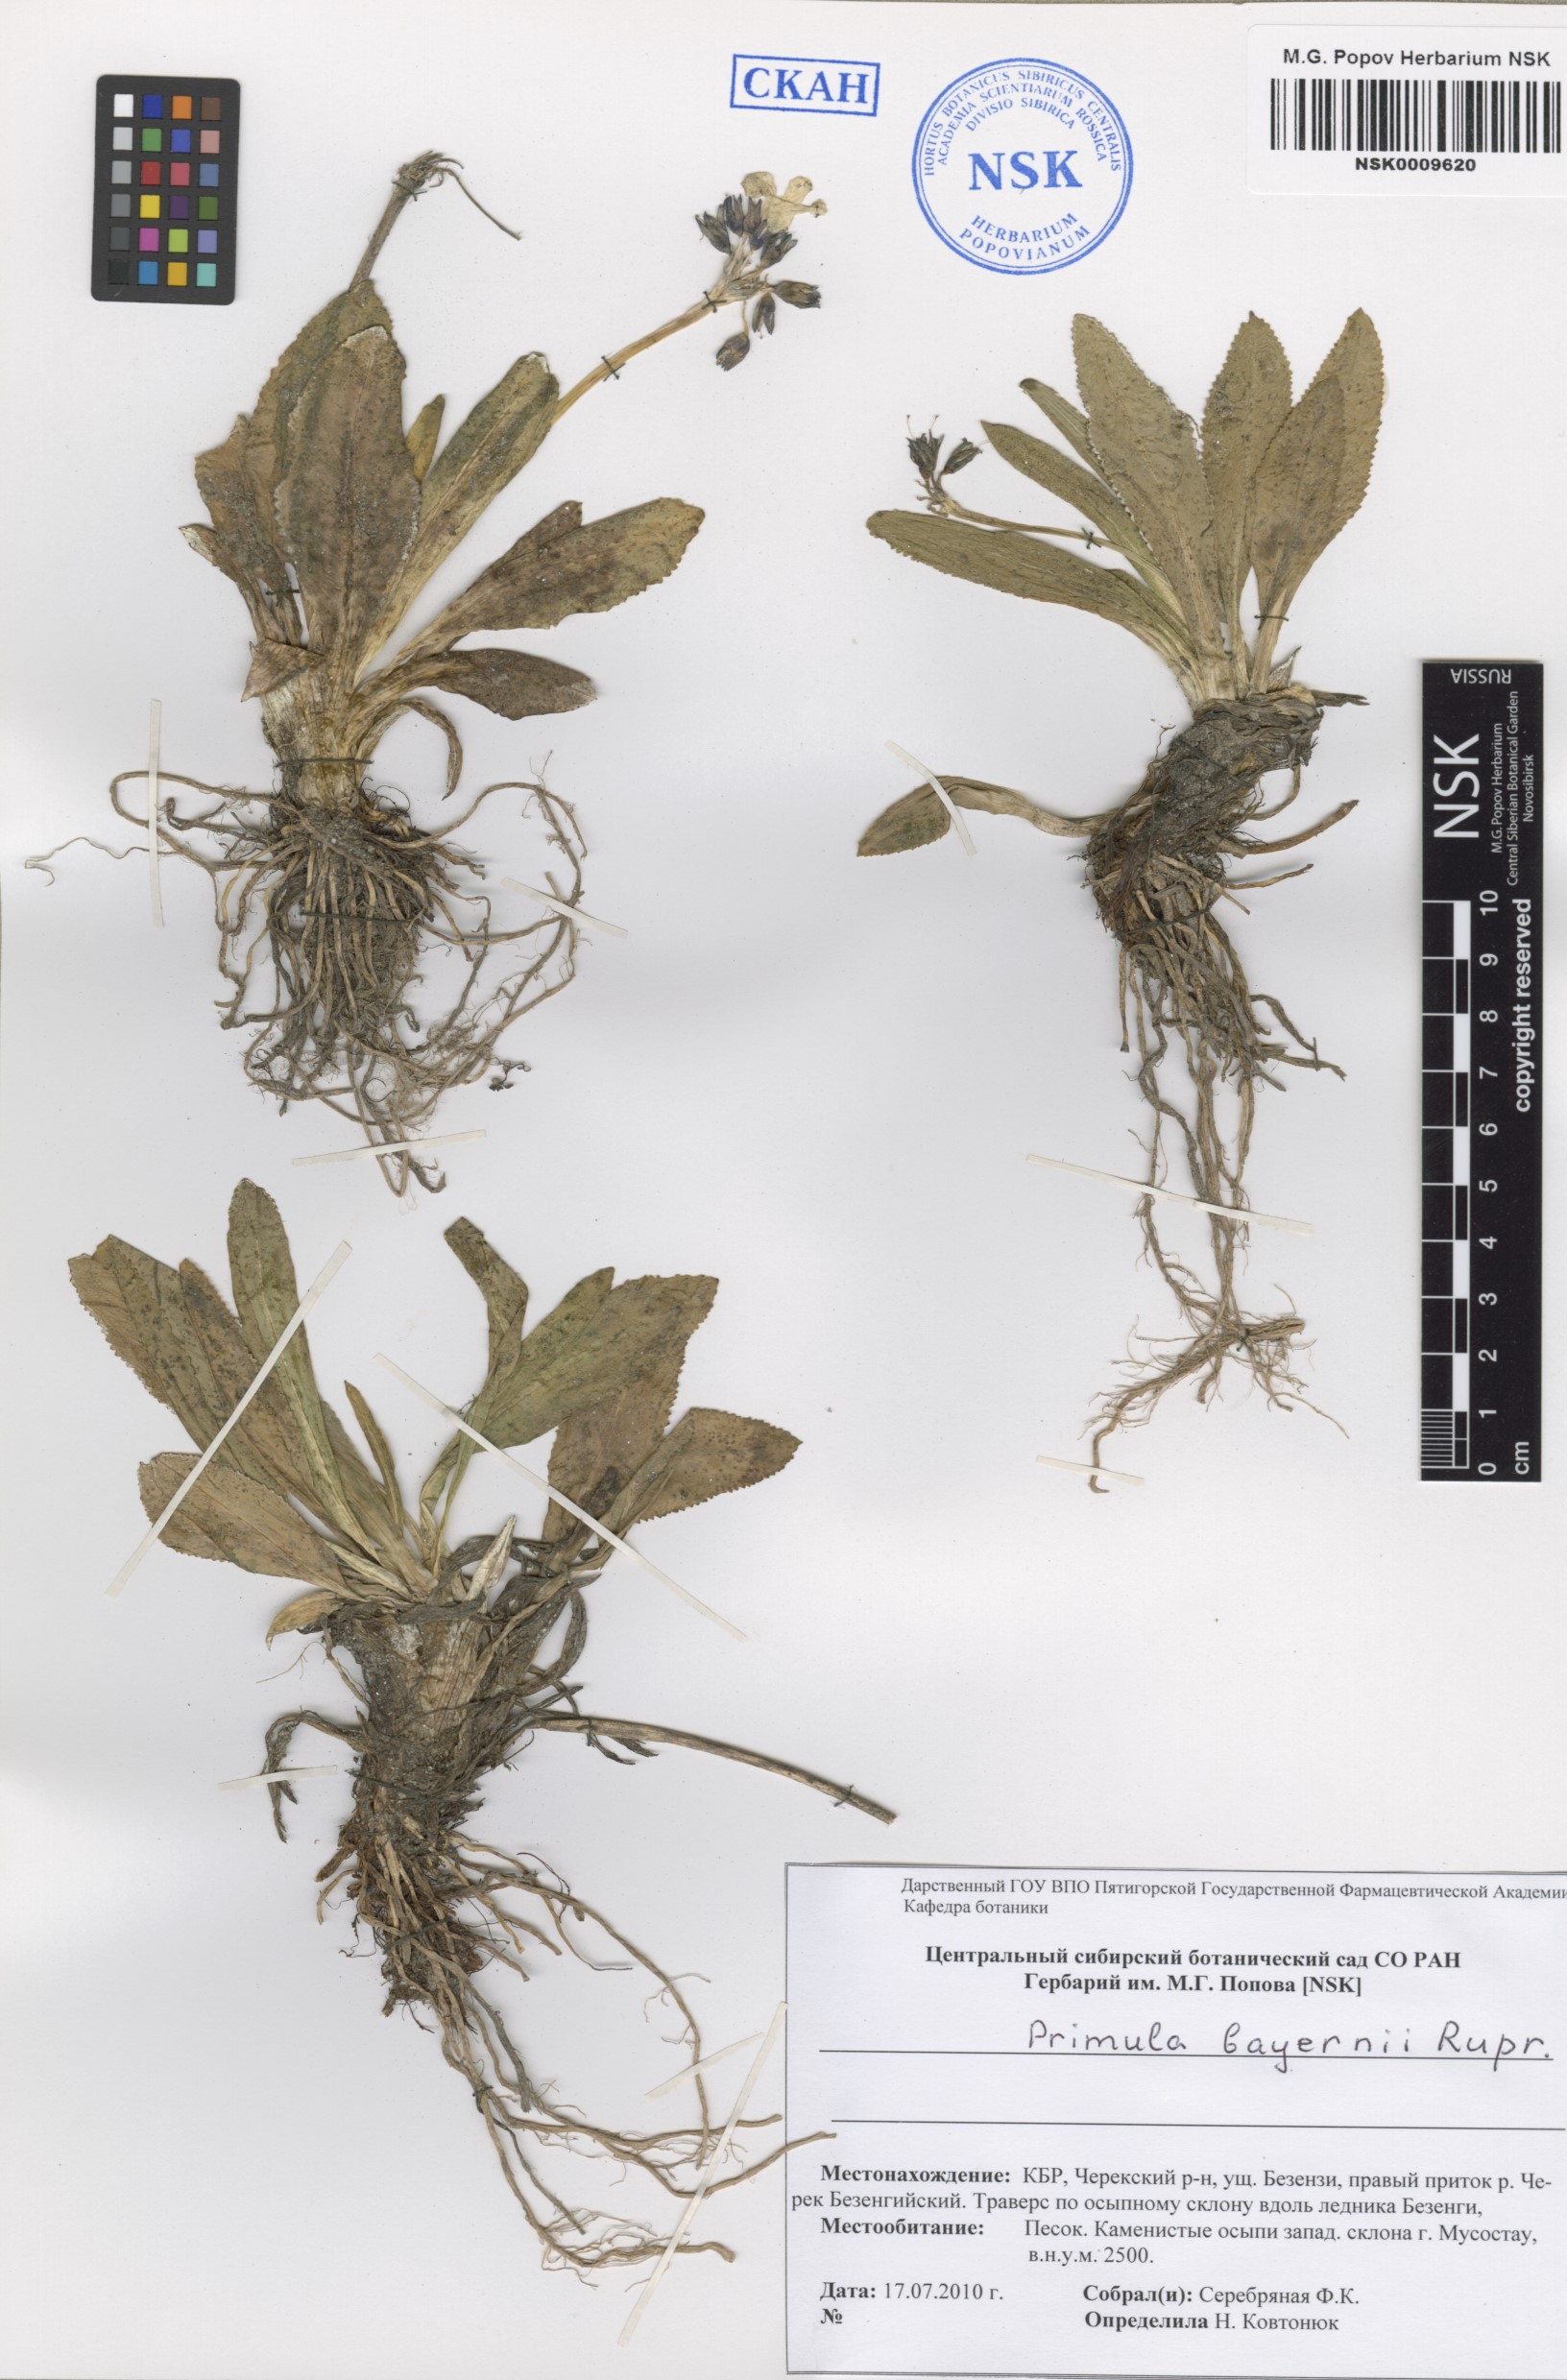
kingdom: Plantae
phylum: Tracheophyta
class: Magnoliopsida
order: Ericales
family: Primulaceae
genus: Primula
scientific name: Primula crassifolia
